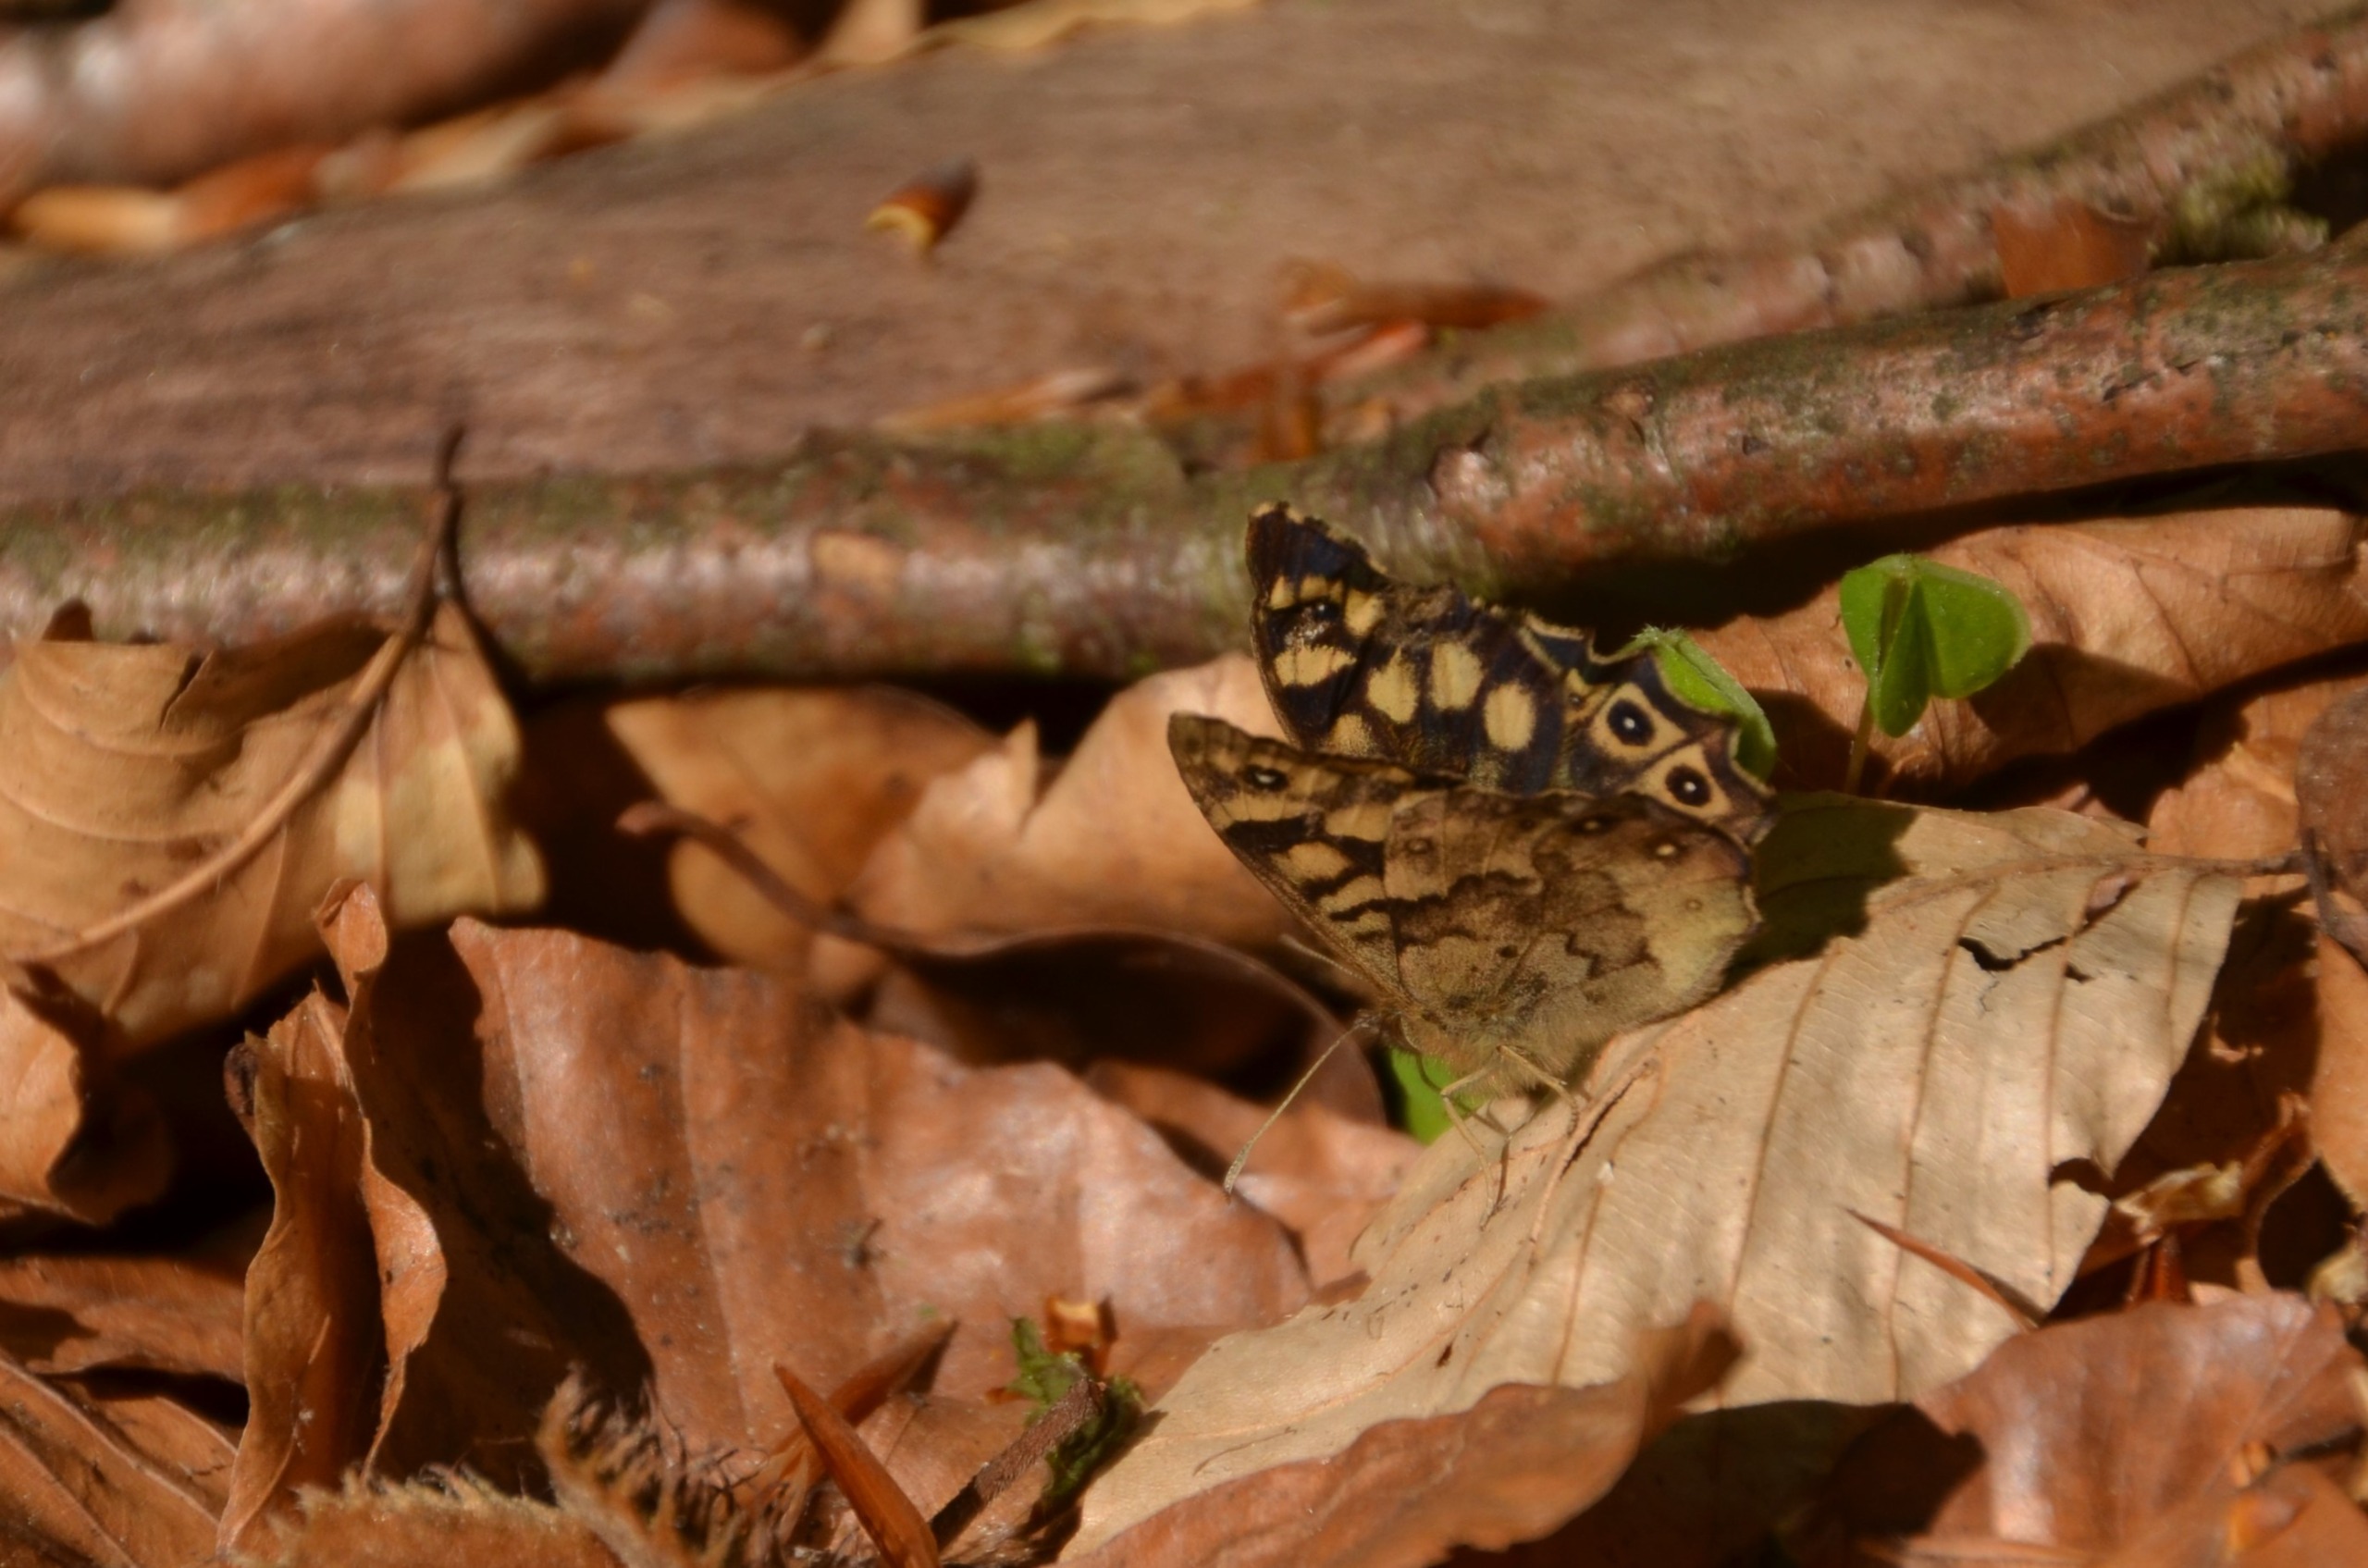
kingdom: Animalia
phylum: Arthropoda
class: Insecta
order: Lepidoptera
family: Nymphalidae
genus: Pararge
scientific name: Pararge aegeria
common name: Skovrandøje
